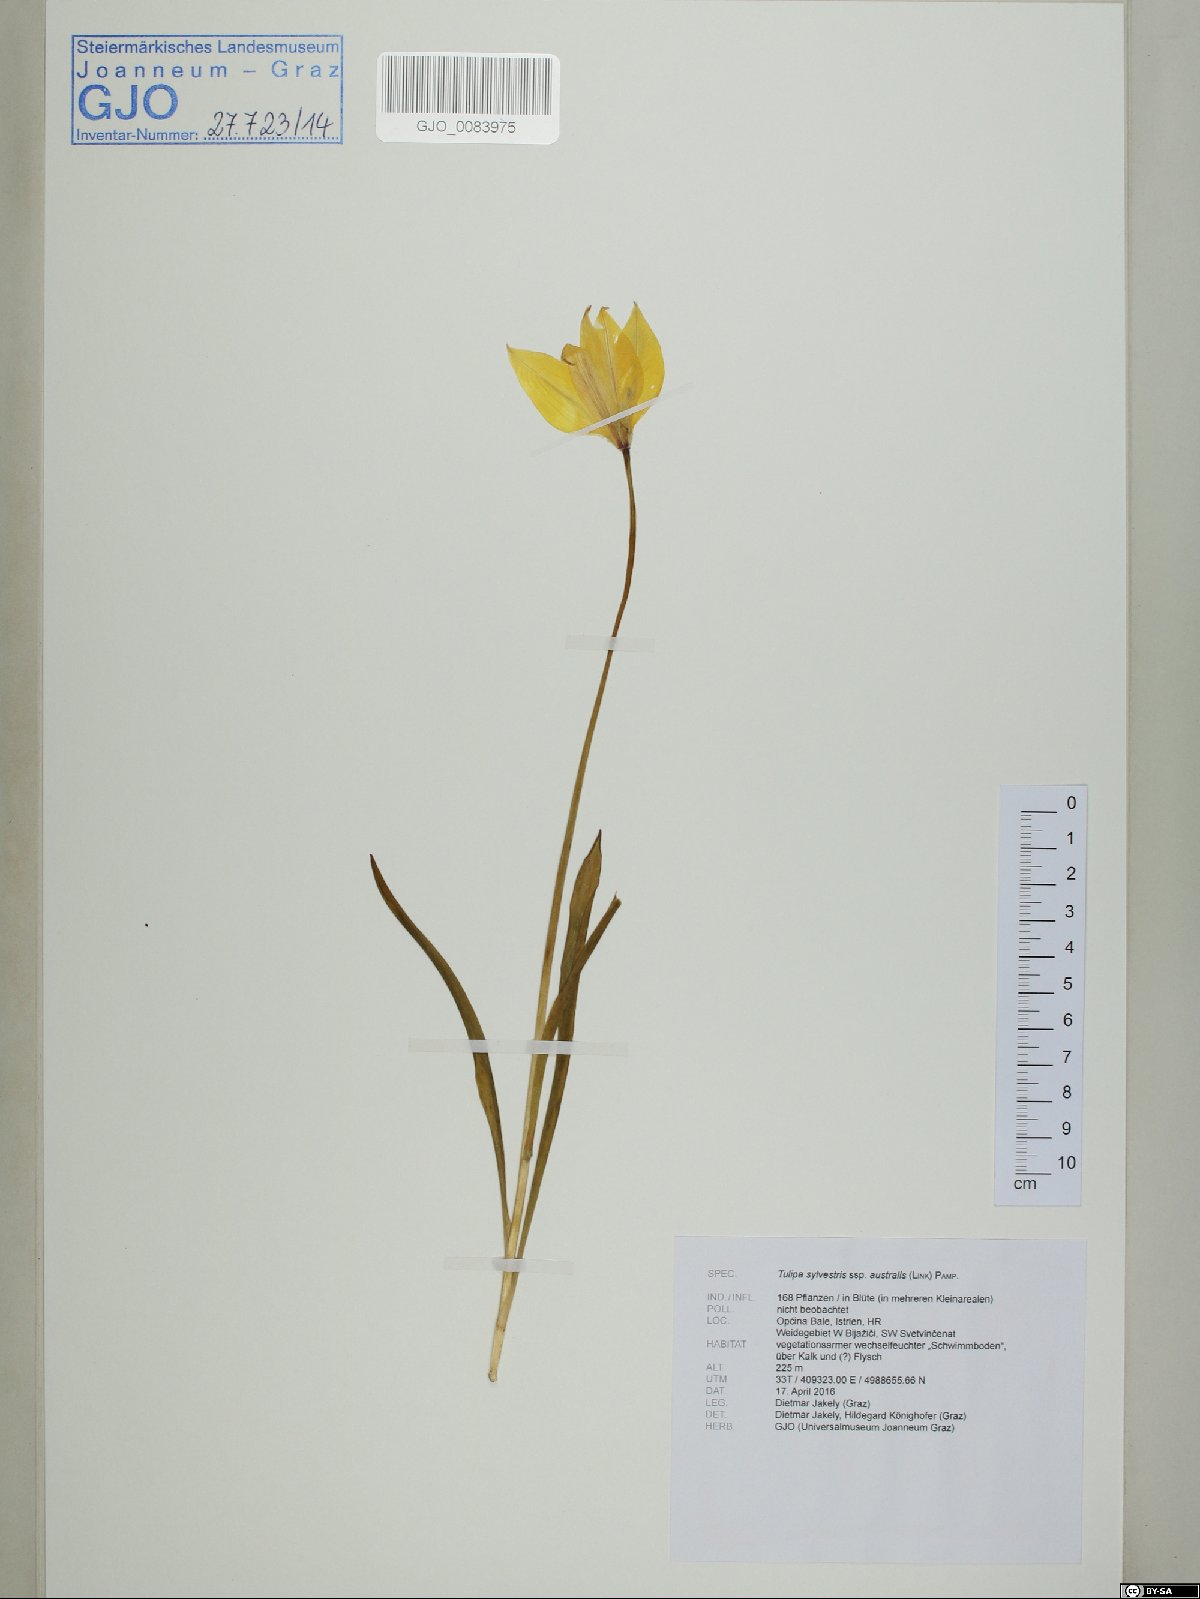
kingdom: Plantae
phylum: Tracheophyta
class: Liliopsida
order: Liliales
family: Liliaceae
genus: Tulipa
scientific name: Tulipa sylvestris
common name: Wild tulip
